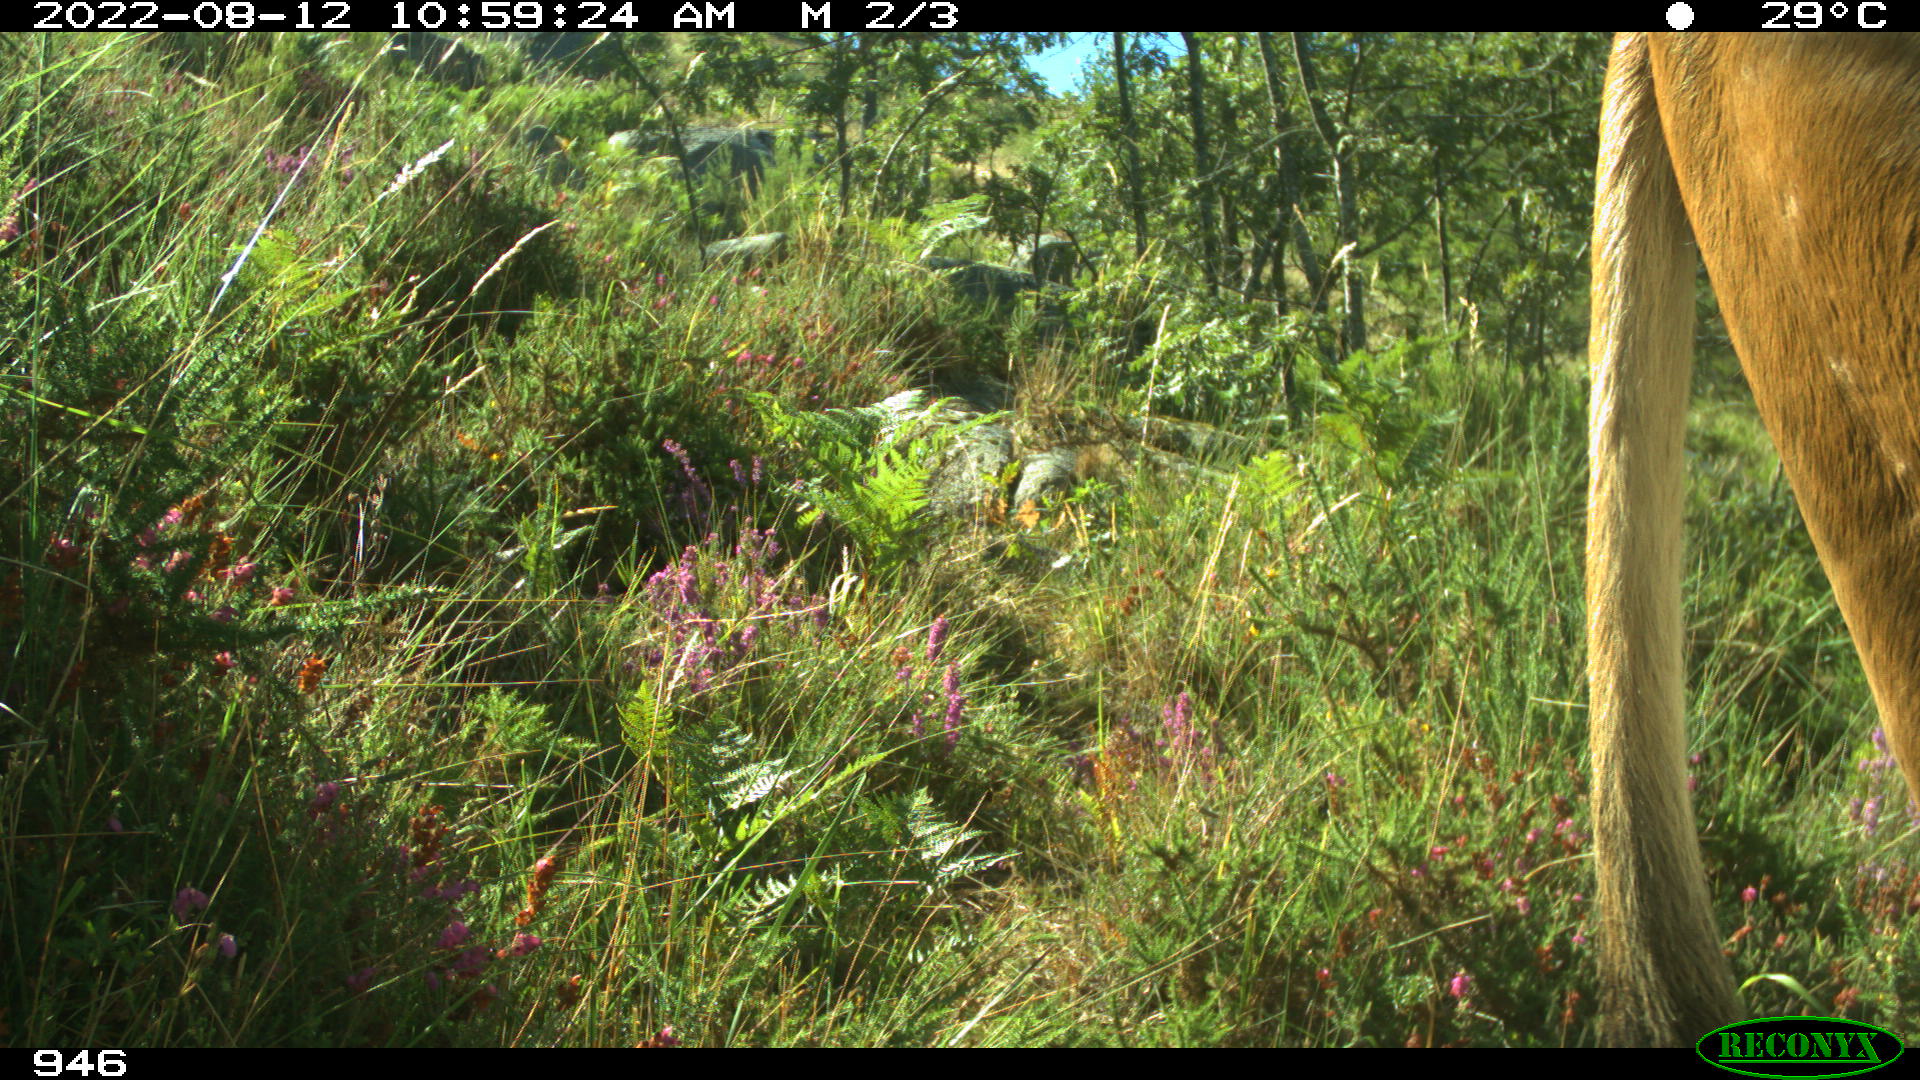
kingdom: Animalia
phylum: Chordata
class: Mammalia
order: Artiodactyla
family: Bovidae
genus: Bos
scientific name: Bos taurus
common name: Domesticated cattle
